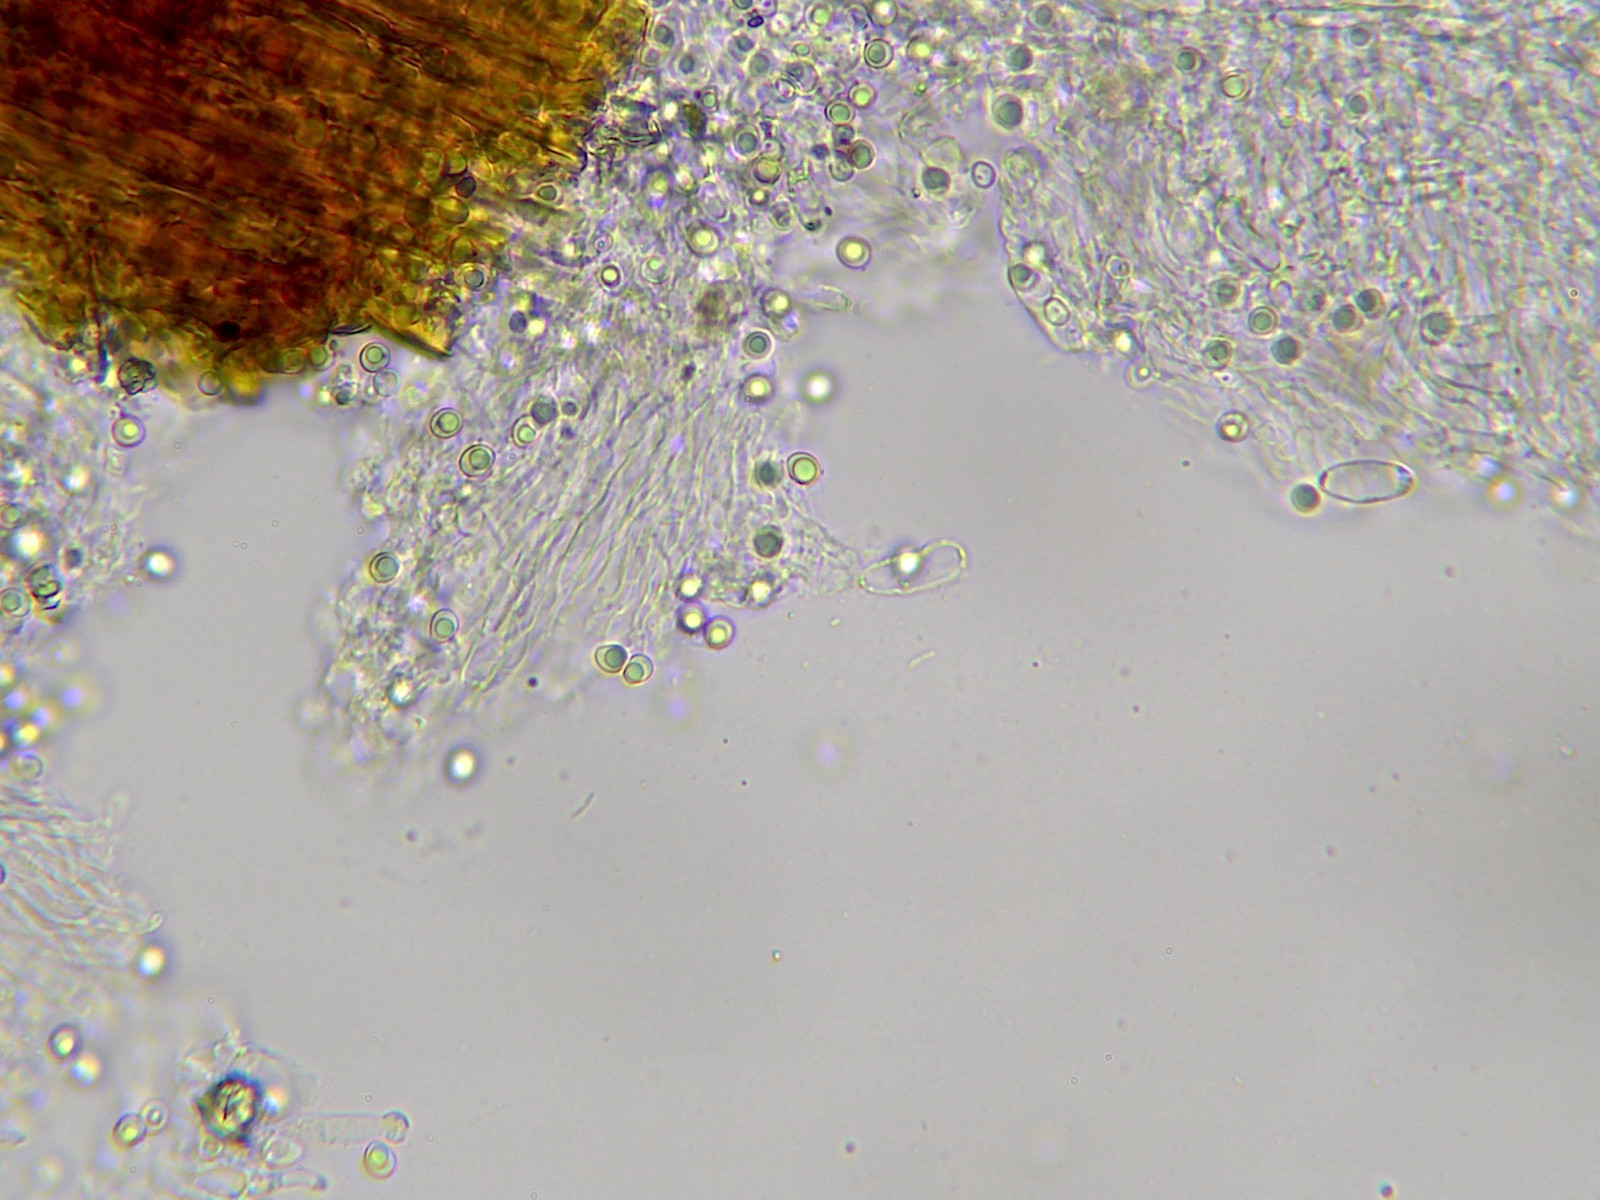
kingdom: Fungi
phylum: Basidiomycota
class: Agaricomycetes
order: Polyporales
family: Meruliaceae
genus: Physisporinus
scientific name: Physisporinus vitreus
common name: mastesvamp
